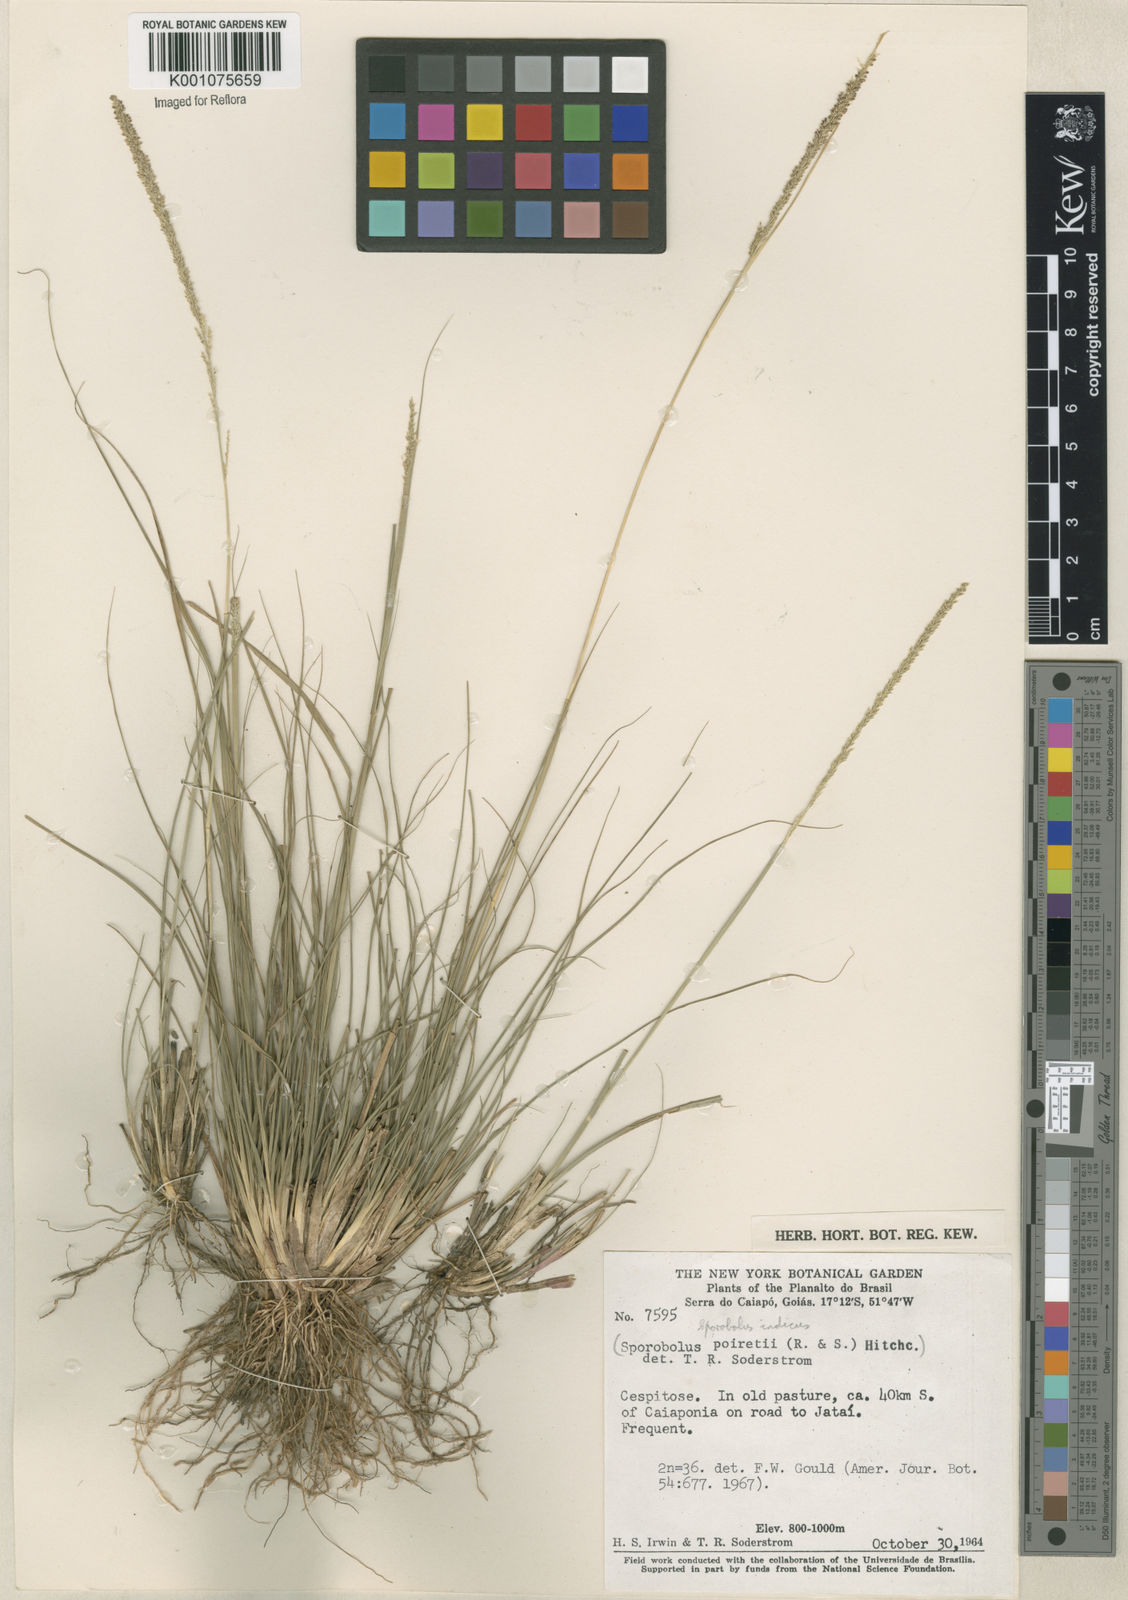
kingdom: Plantae
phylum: Tracheophyta
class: Liliopsida
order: Poales
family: Poaceae
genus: Sporobolus
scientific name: Sporobolus indicus
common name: Smut grass
